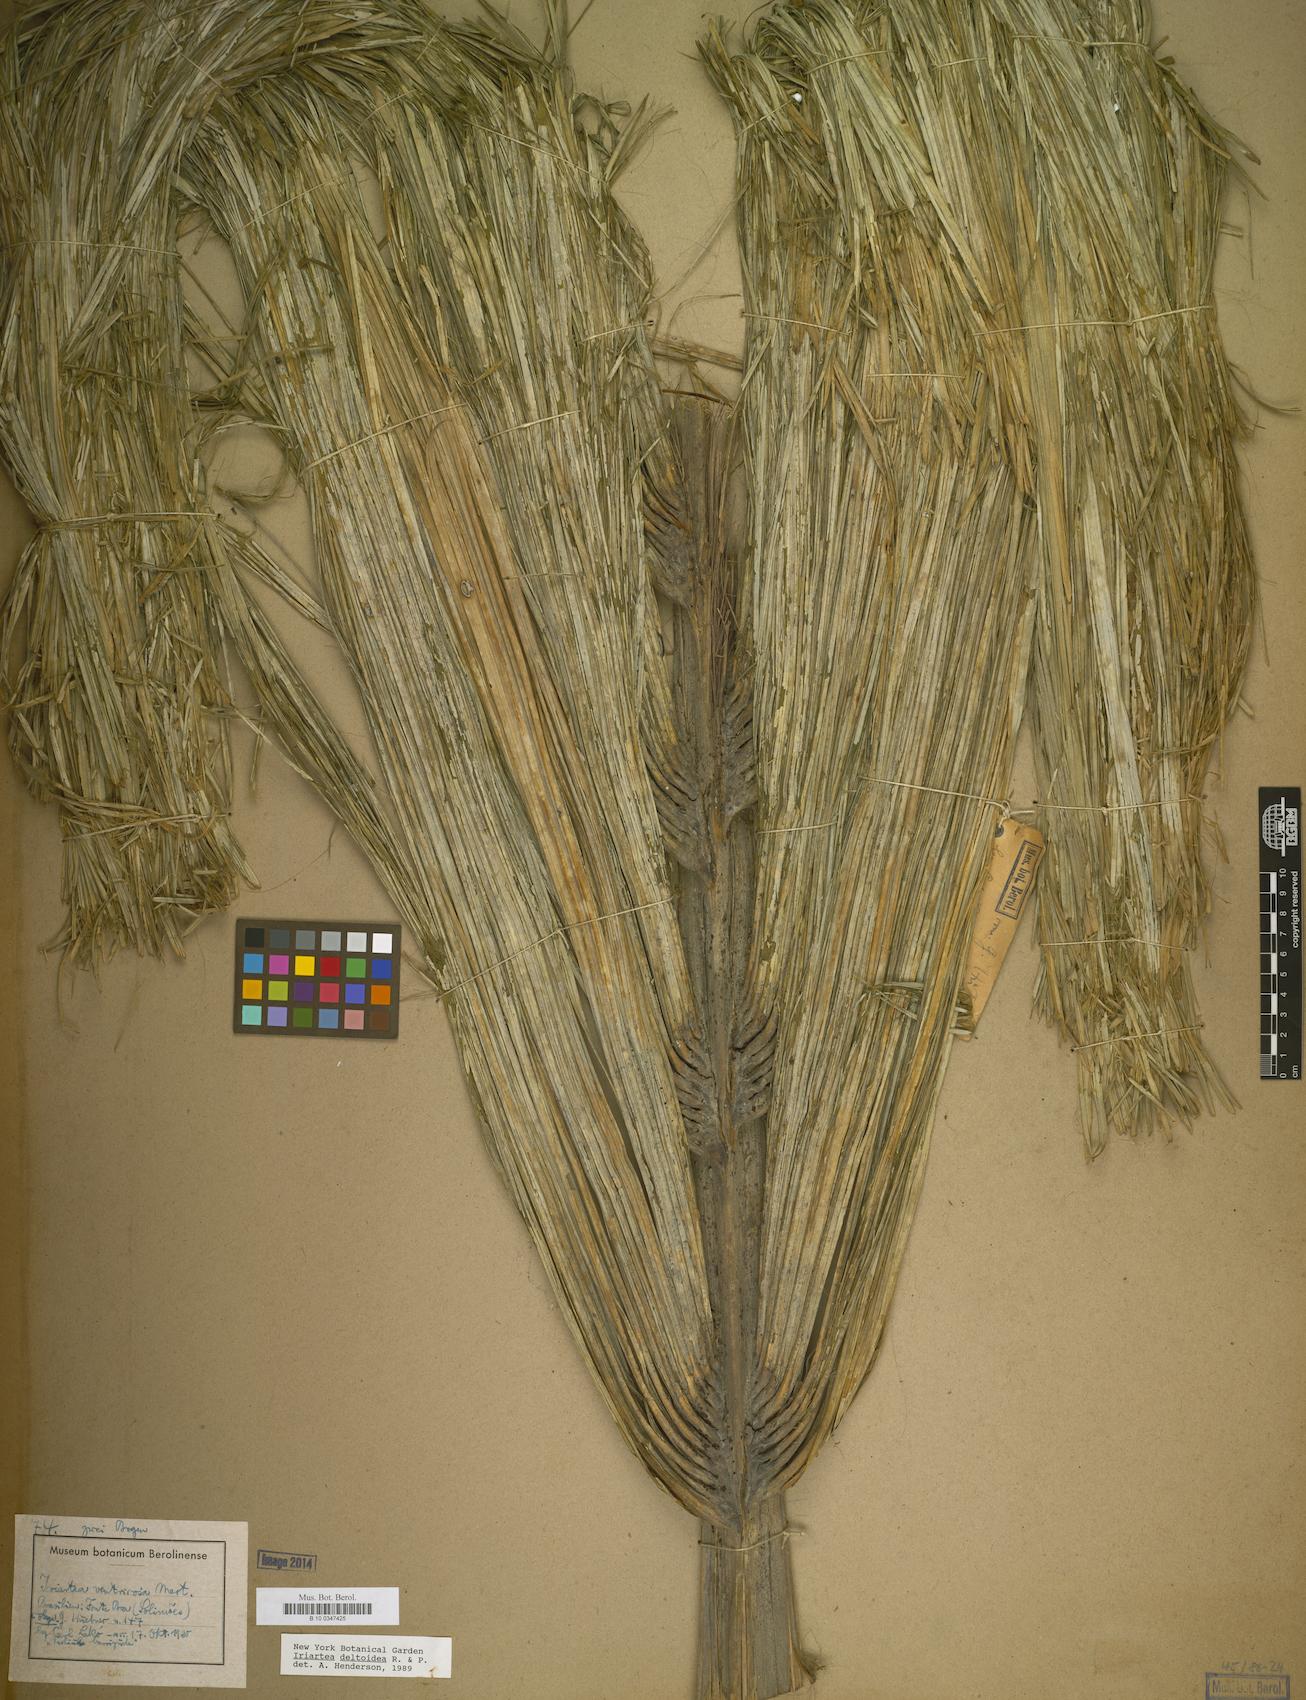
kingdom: Plantae
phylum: Tracheophyta
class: Liliopsida
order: Arecales
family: Arecaceae
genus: Iriartea
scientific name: Iriartea deltoidea
